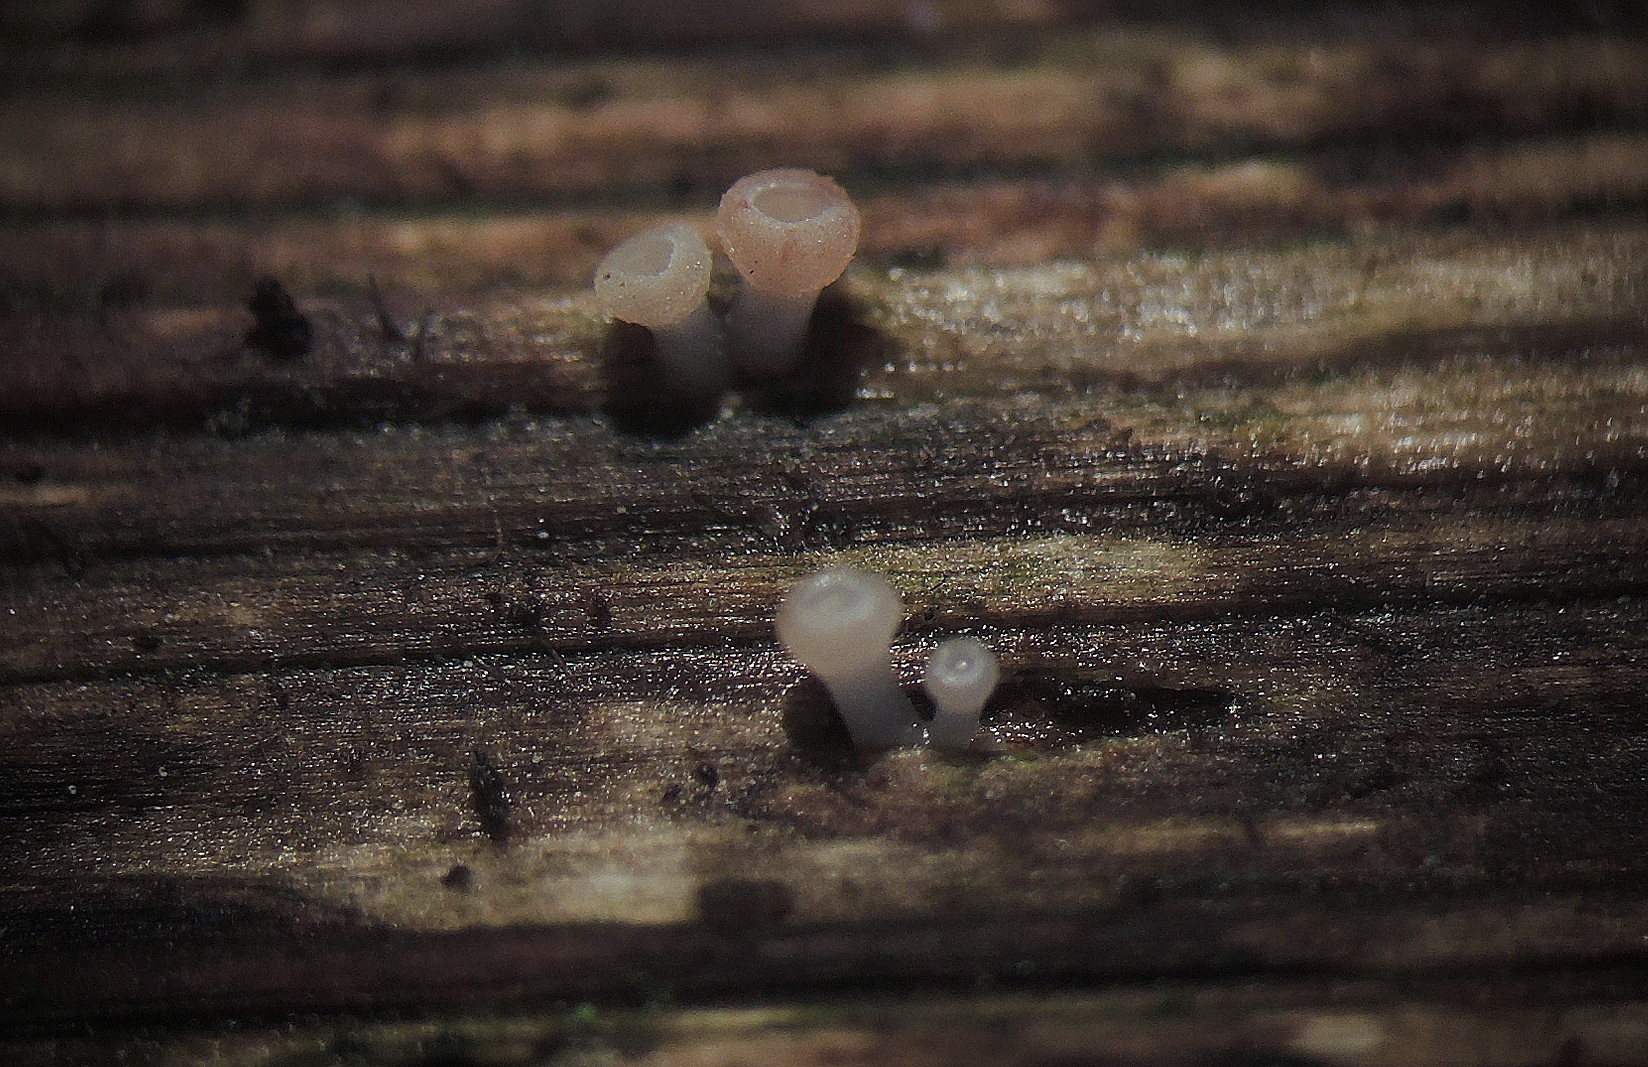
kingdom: Fungi
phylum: Ascomycota
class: Leotiomycetes
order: Helotiales
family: Helotiaceae
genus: Hymenoscyphus
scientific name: Hymenoscyphus macroguttatus
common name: stordråbet stilkskive
